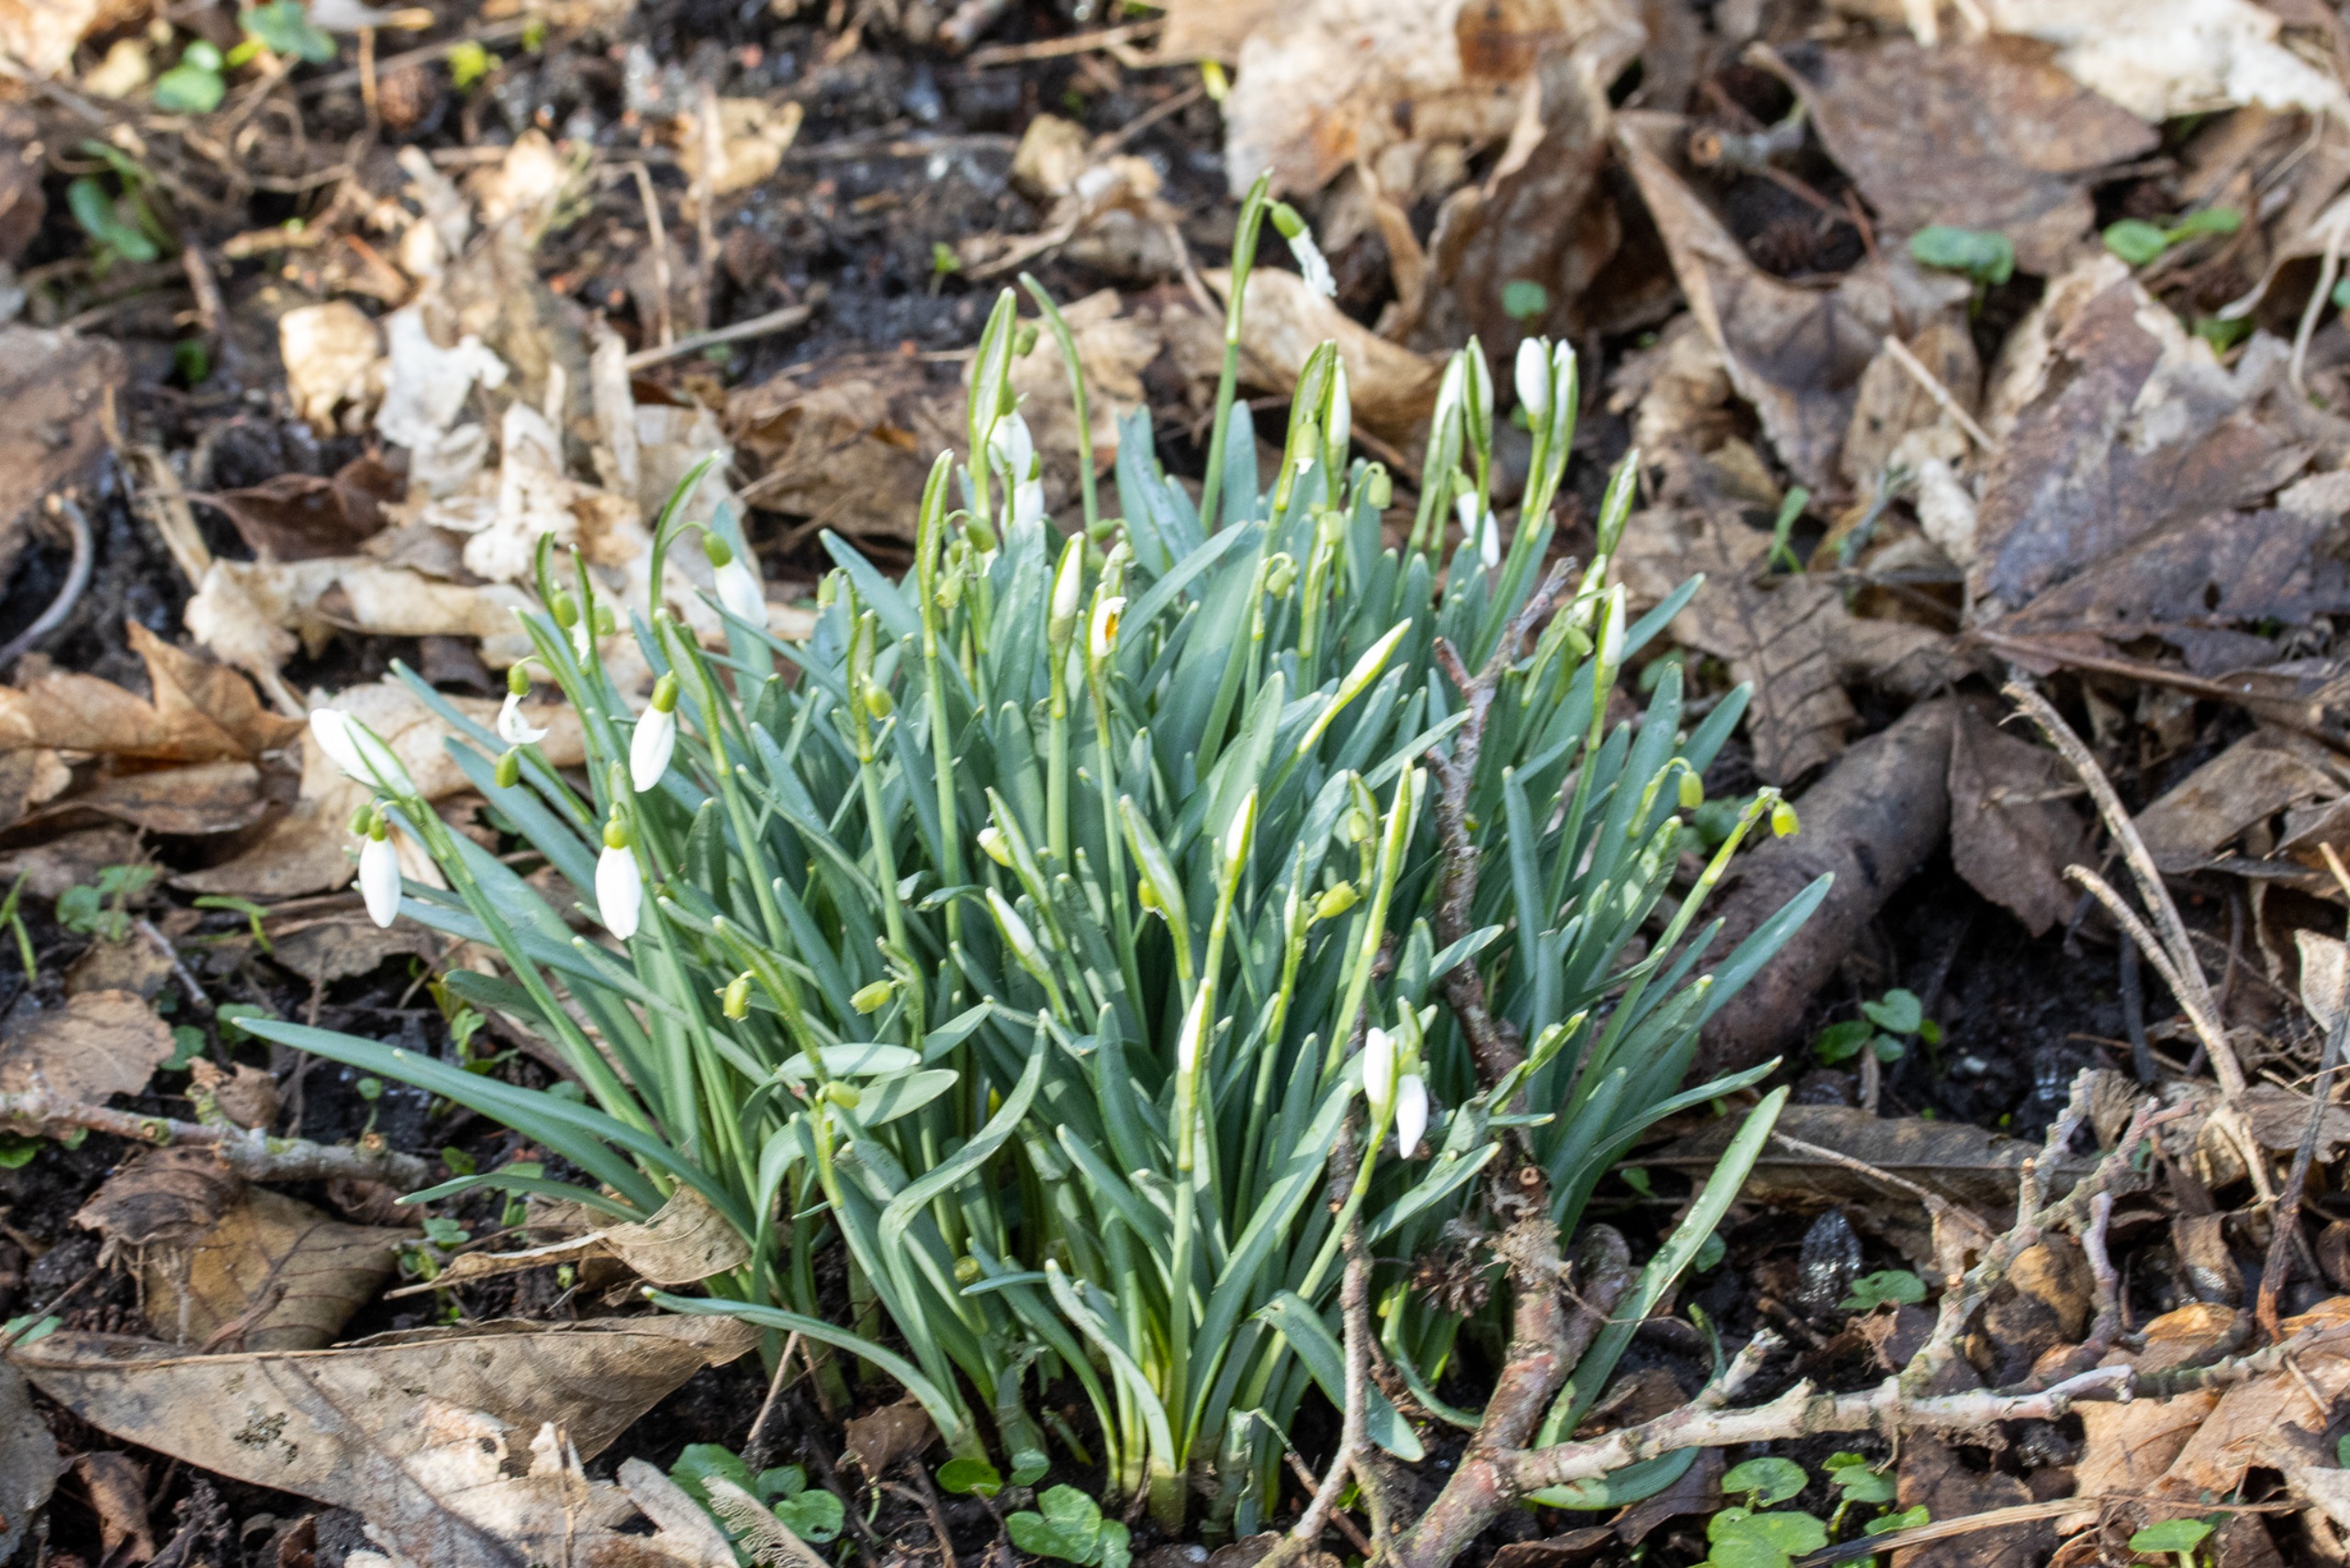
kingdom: Plantae
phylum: Tracheophyta
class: Liliopsida
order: Asparagales
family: Amaryllidaceae
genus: Galanthus
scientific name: Galanthus nivalis
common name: Vintergæk
